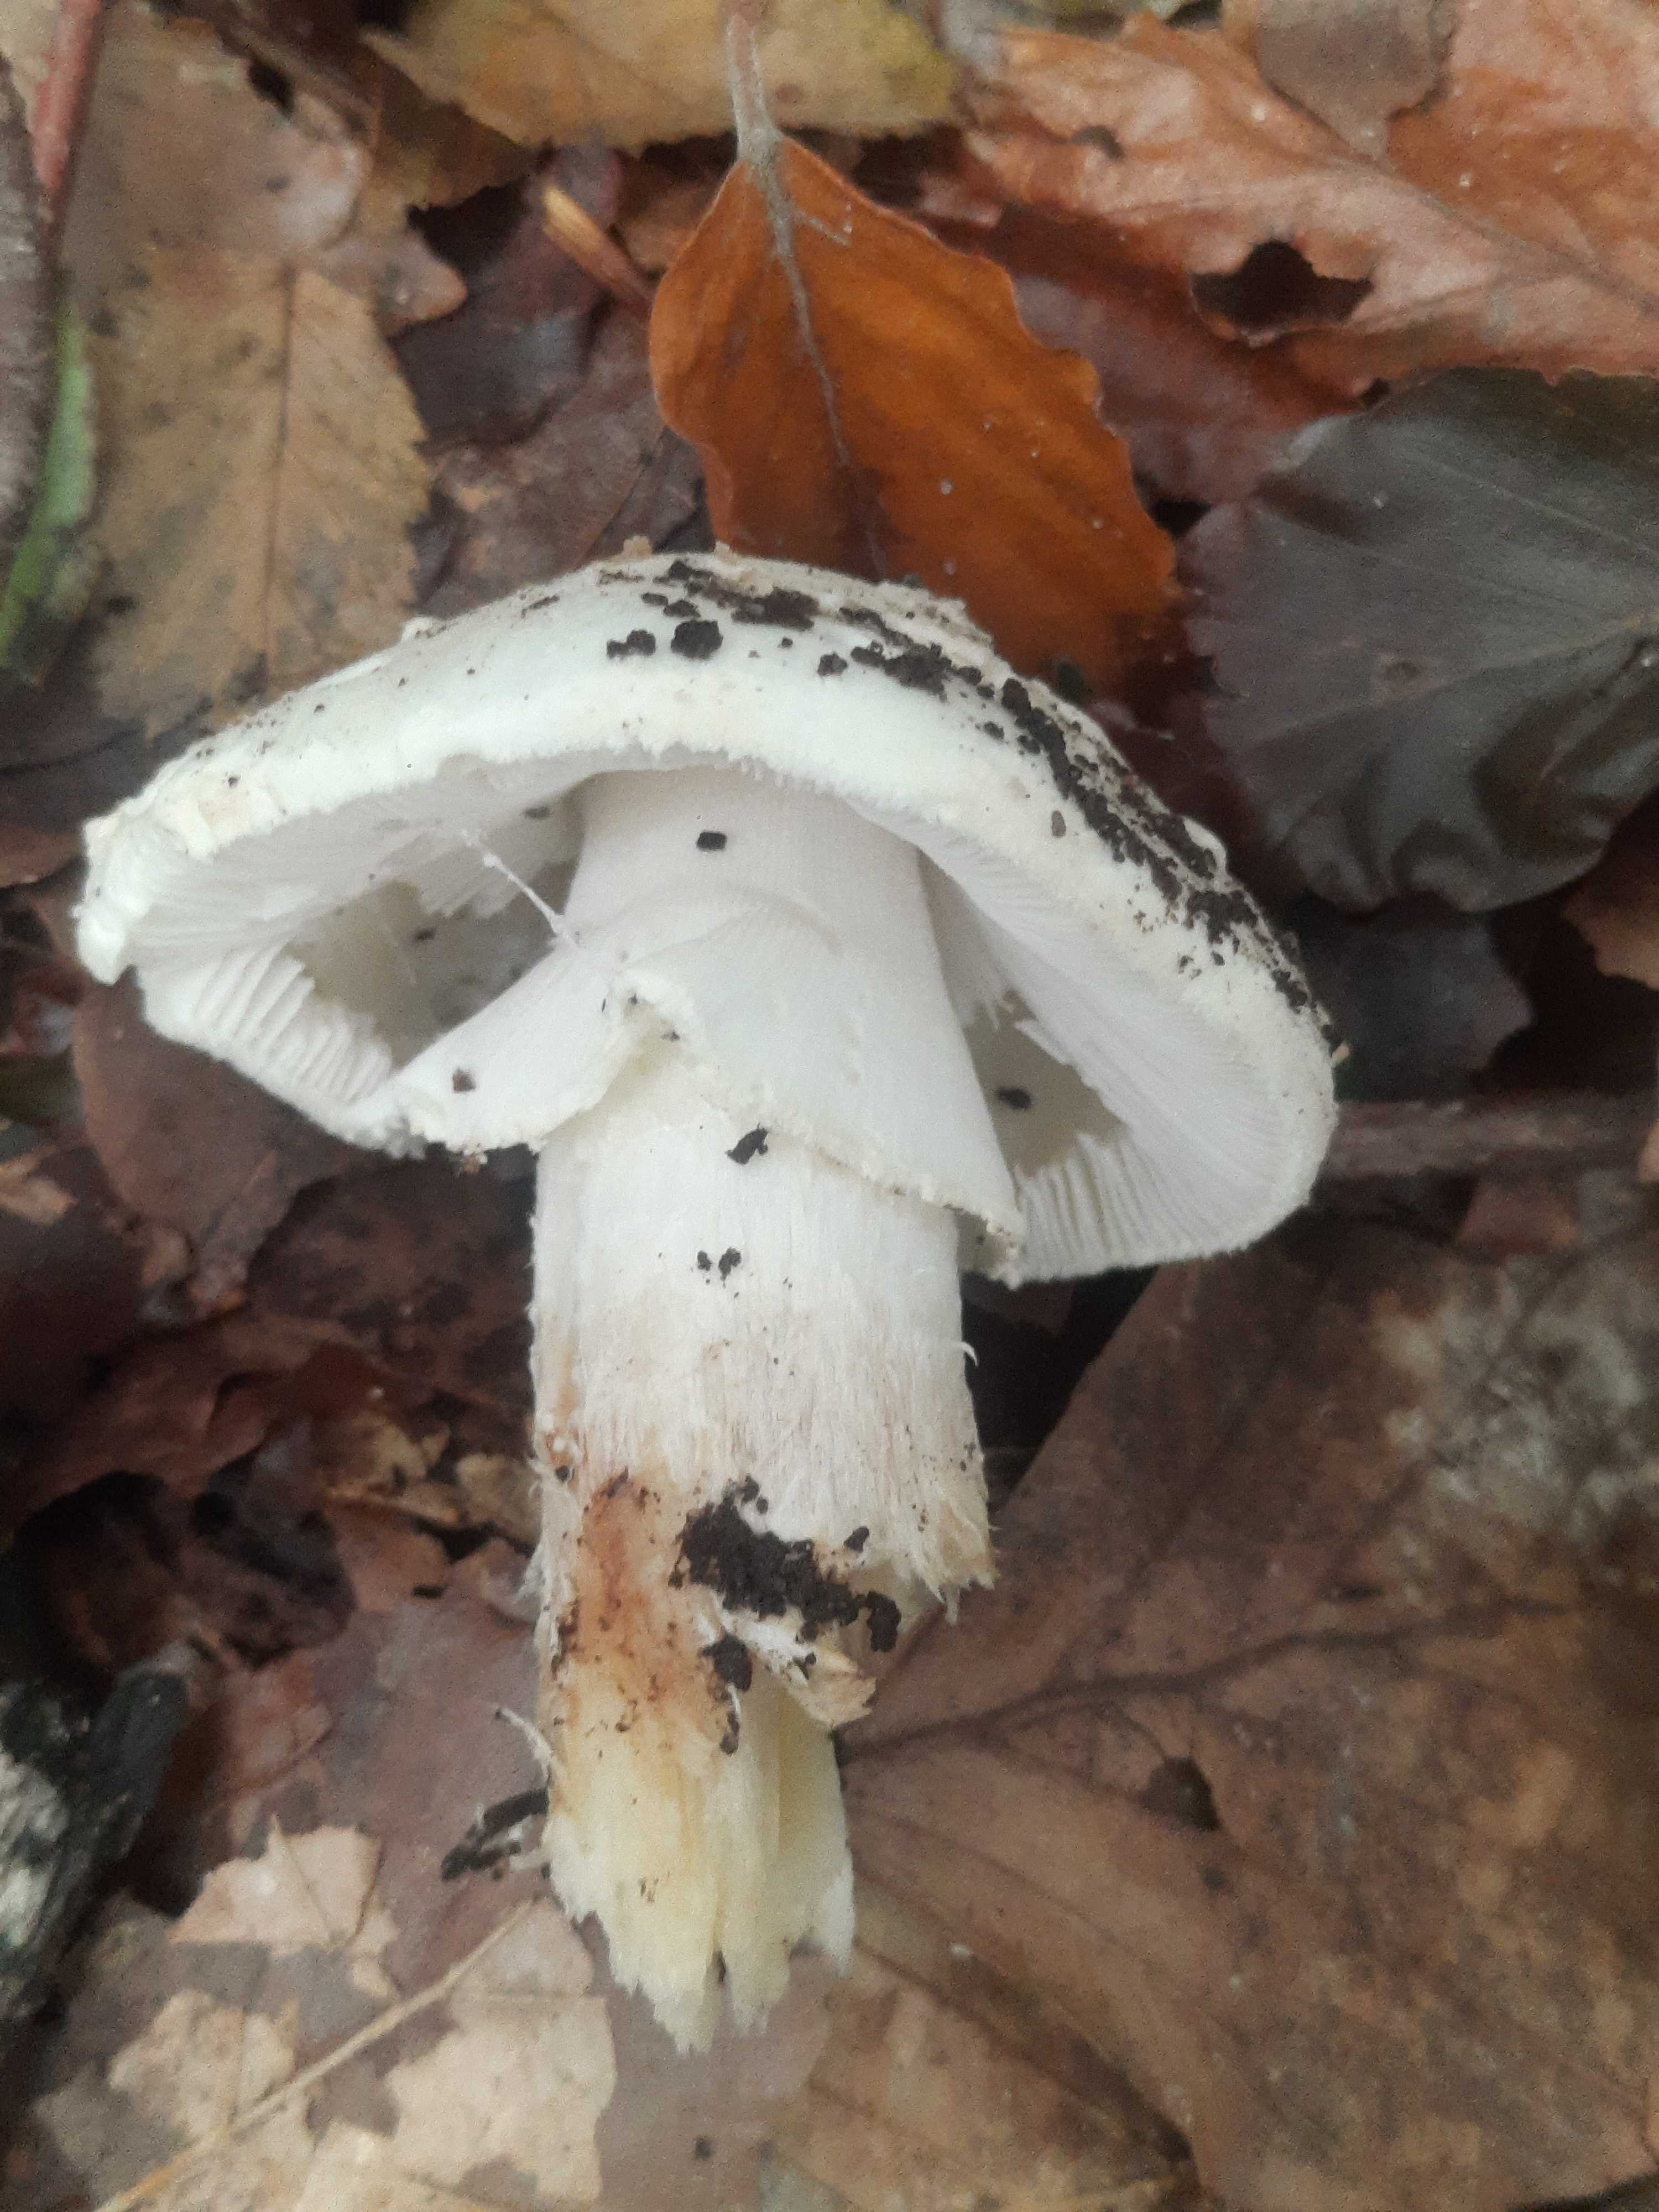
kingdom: Fungi
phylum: Basidiomycota
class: Agaricomycetes
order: Agaricales
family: Amanitaceae
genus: Amanita
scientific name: Amanita citrina
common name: kugleknoldet fluesvamp
